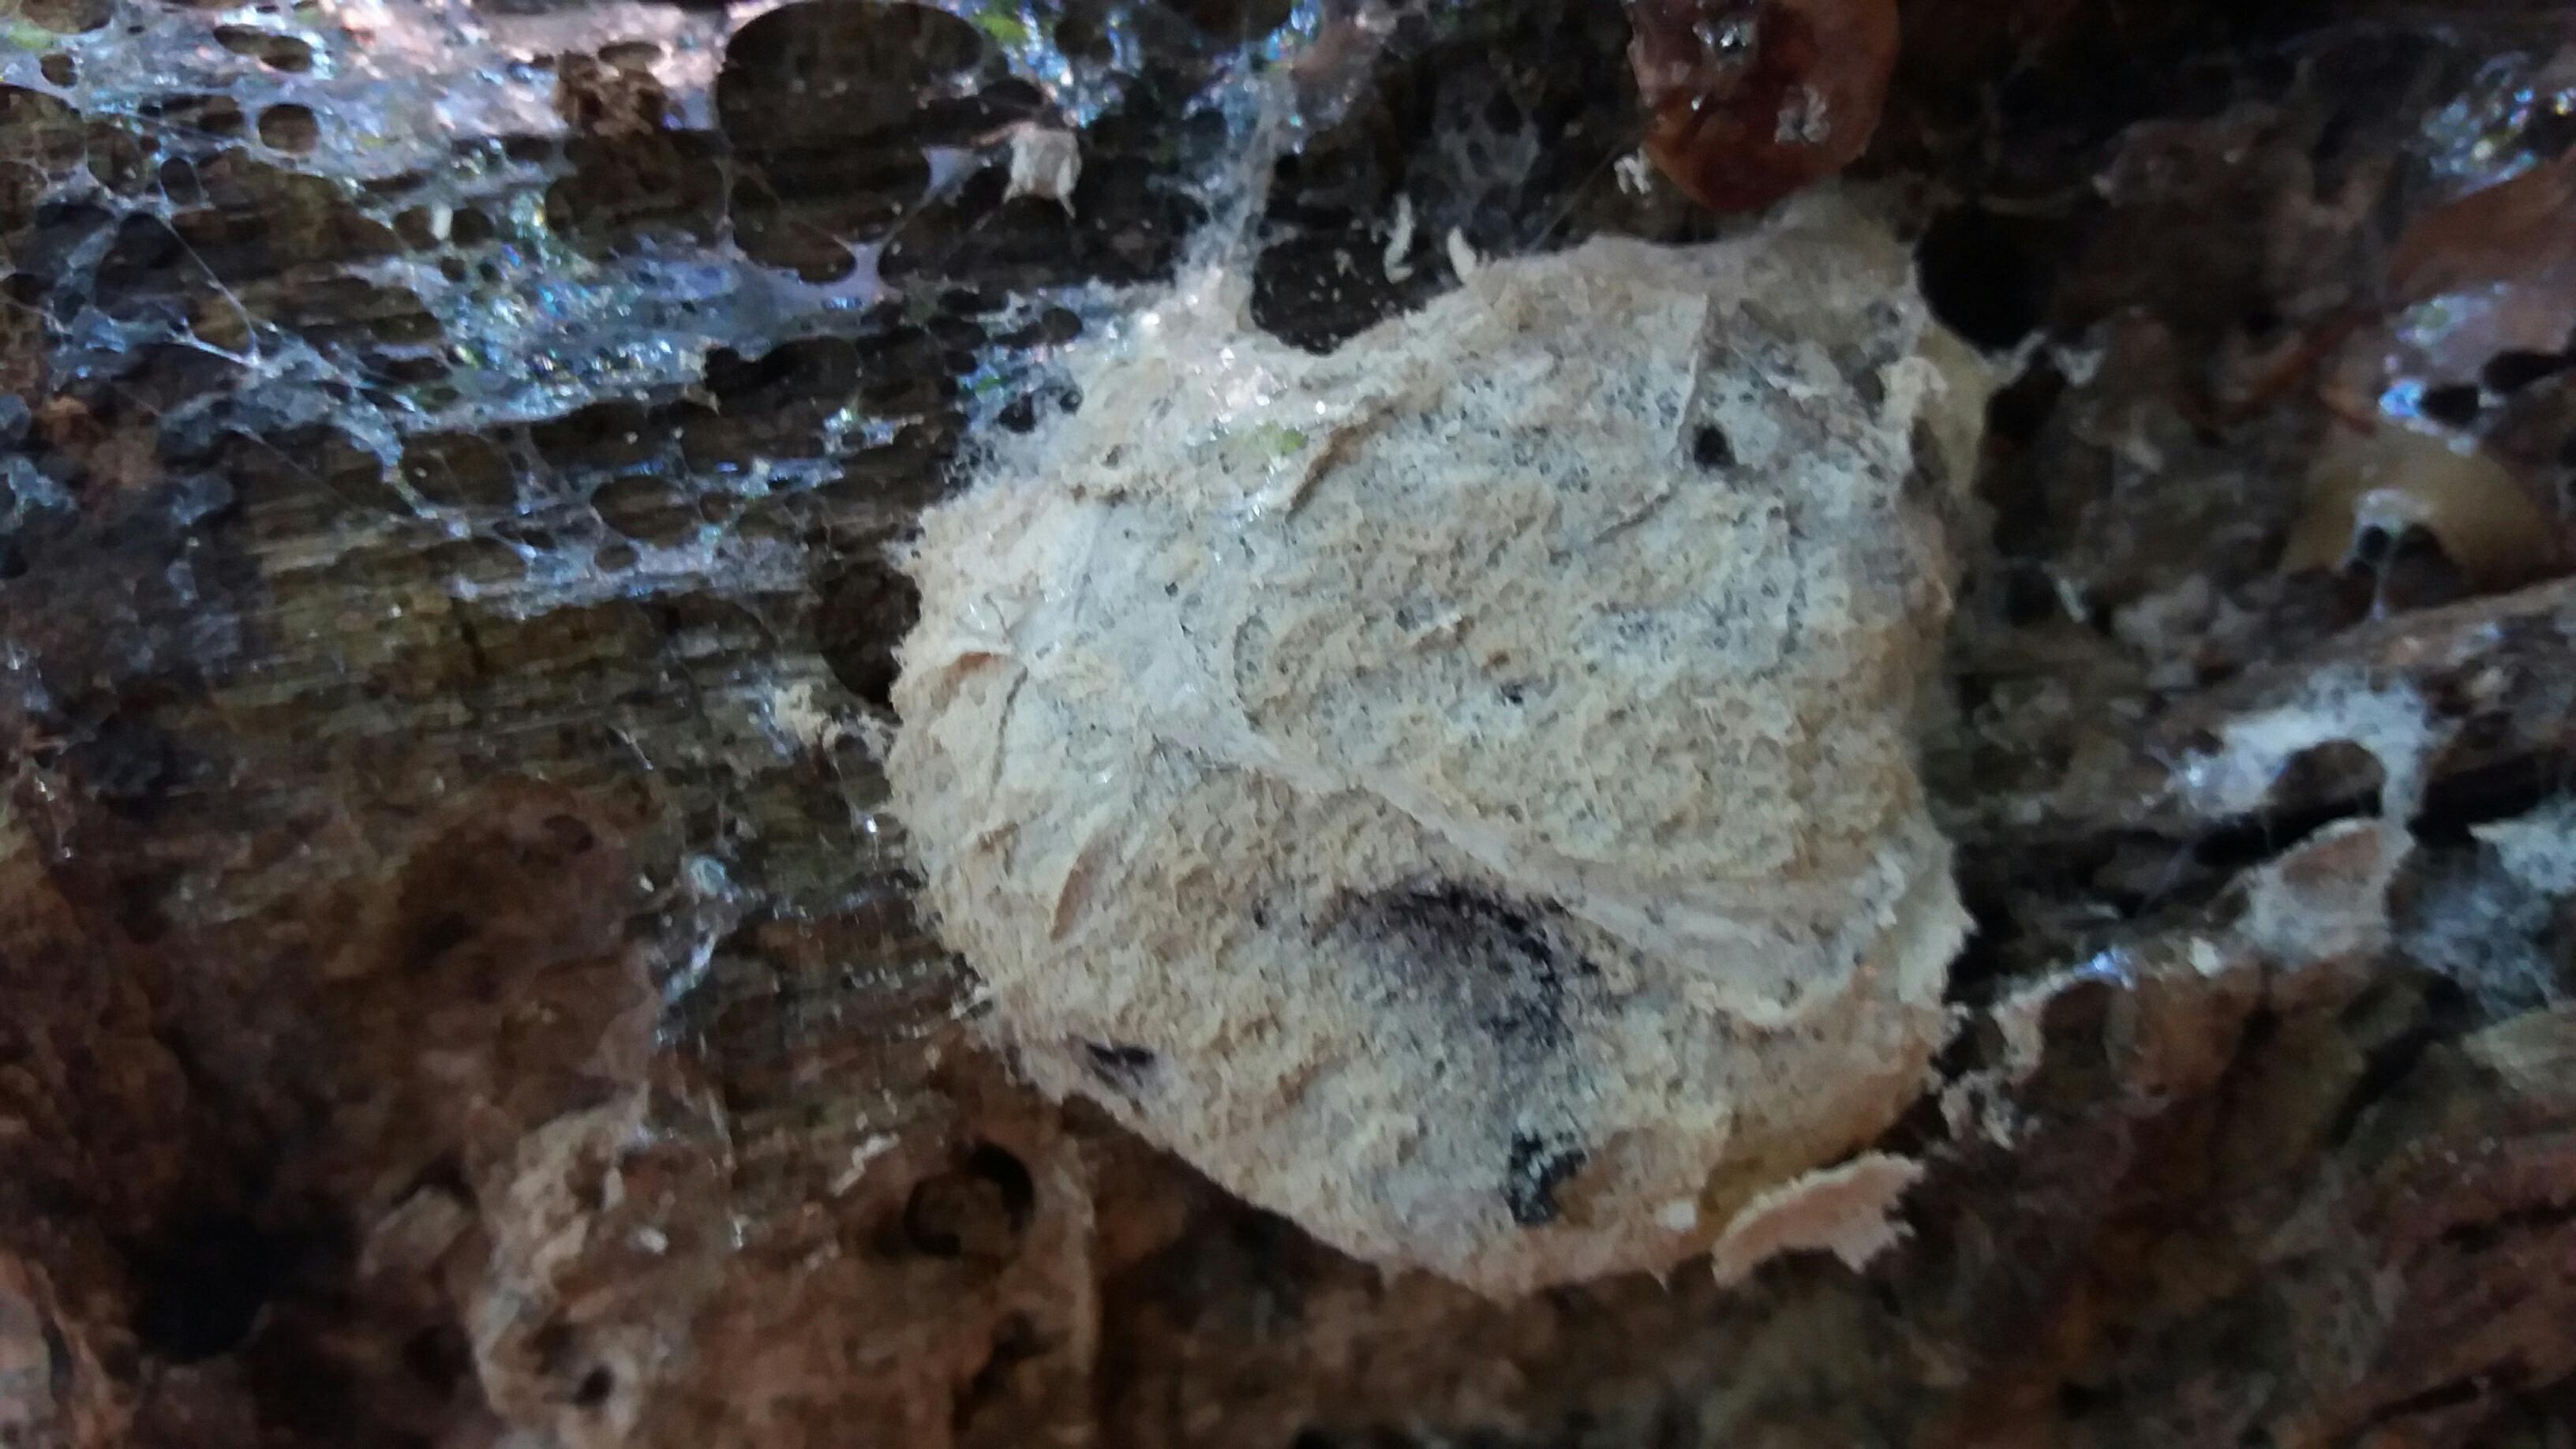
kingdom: Protozoa
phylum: Mycetozoa
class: Myxomycetes
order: Physarales
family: Physaraceae
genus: Fuligo
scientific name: Fuligo septica
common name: gul troldsmør
